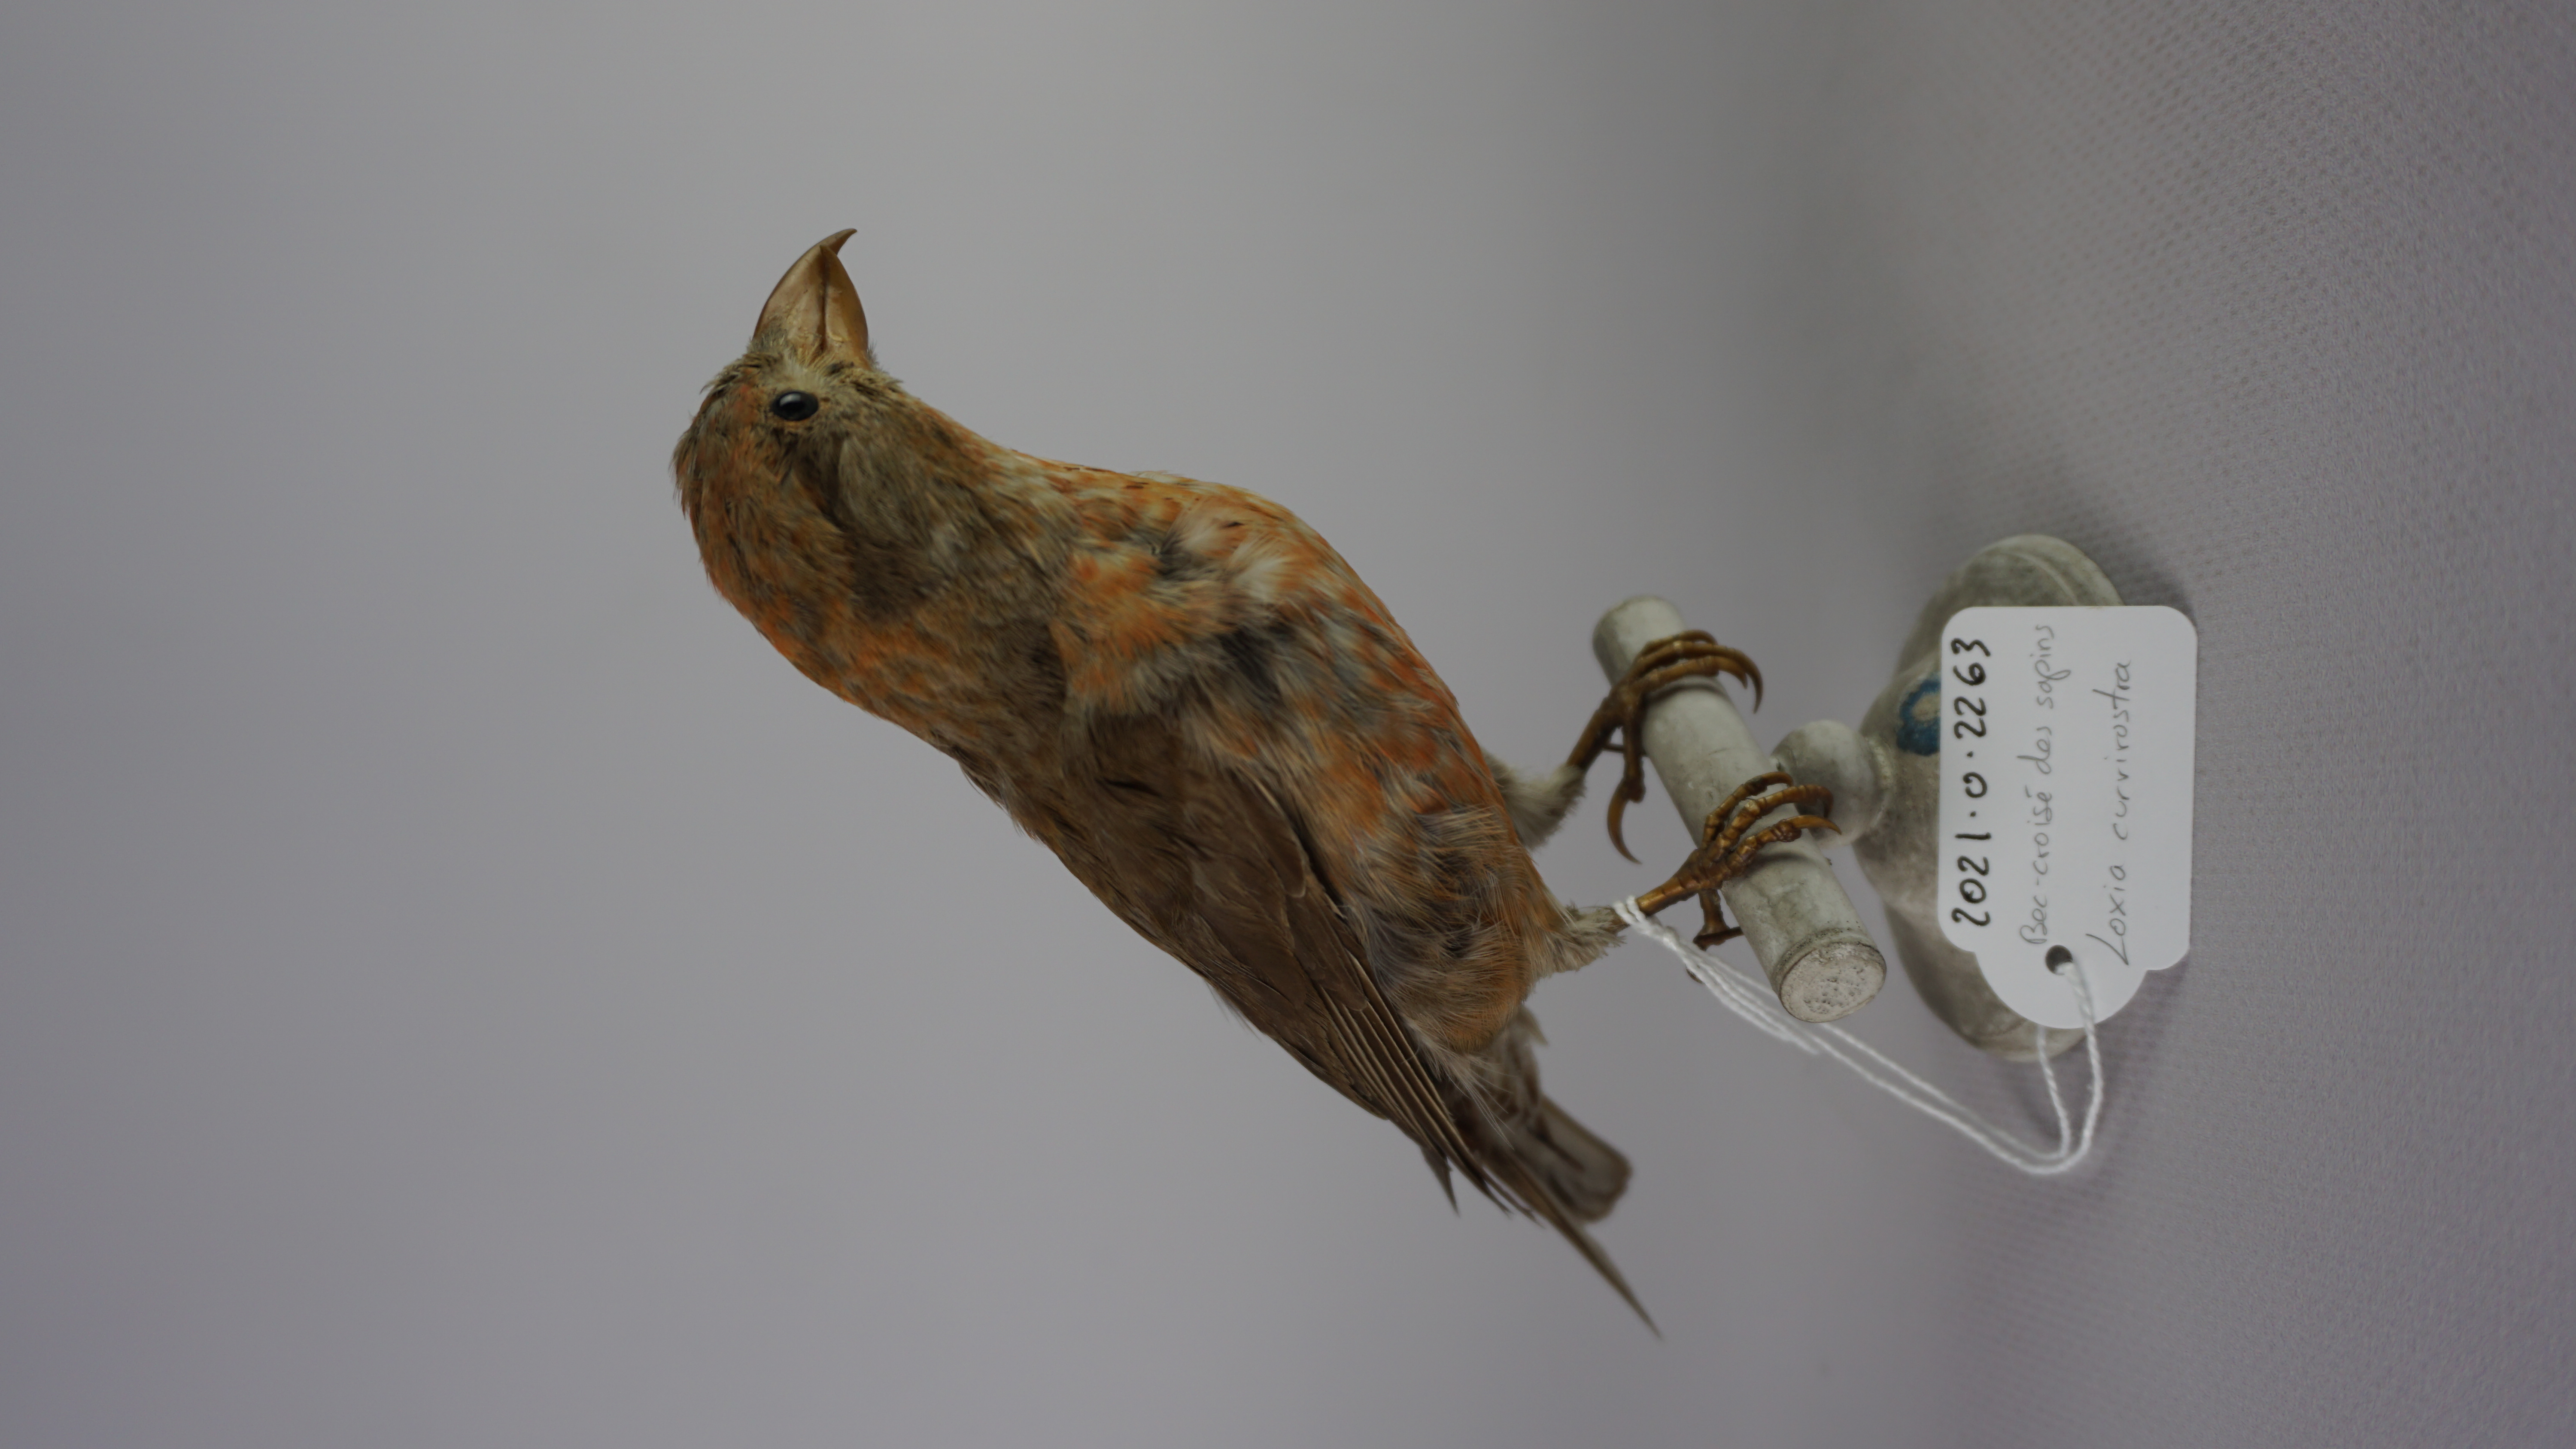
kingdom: Animalia
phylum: Chordata
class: Aves
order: Passeriformes
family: Fringillidae
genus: Loxia
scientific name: Loxia curvirostra
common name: Red crossbill
